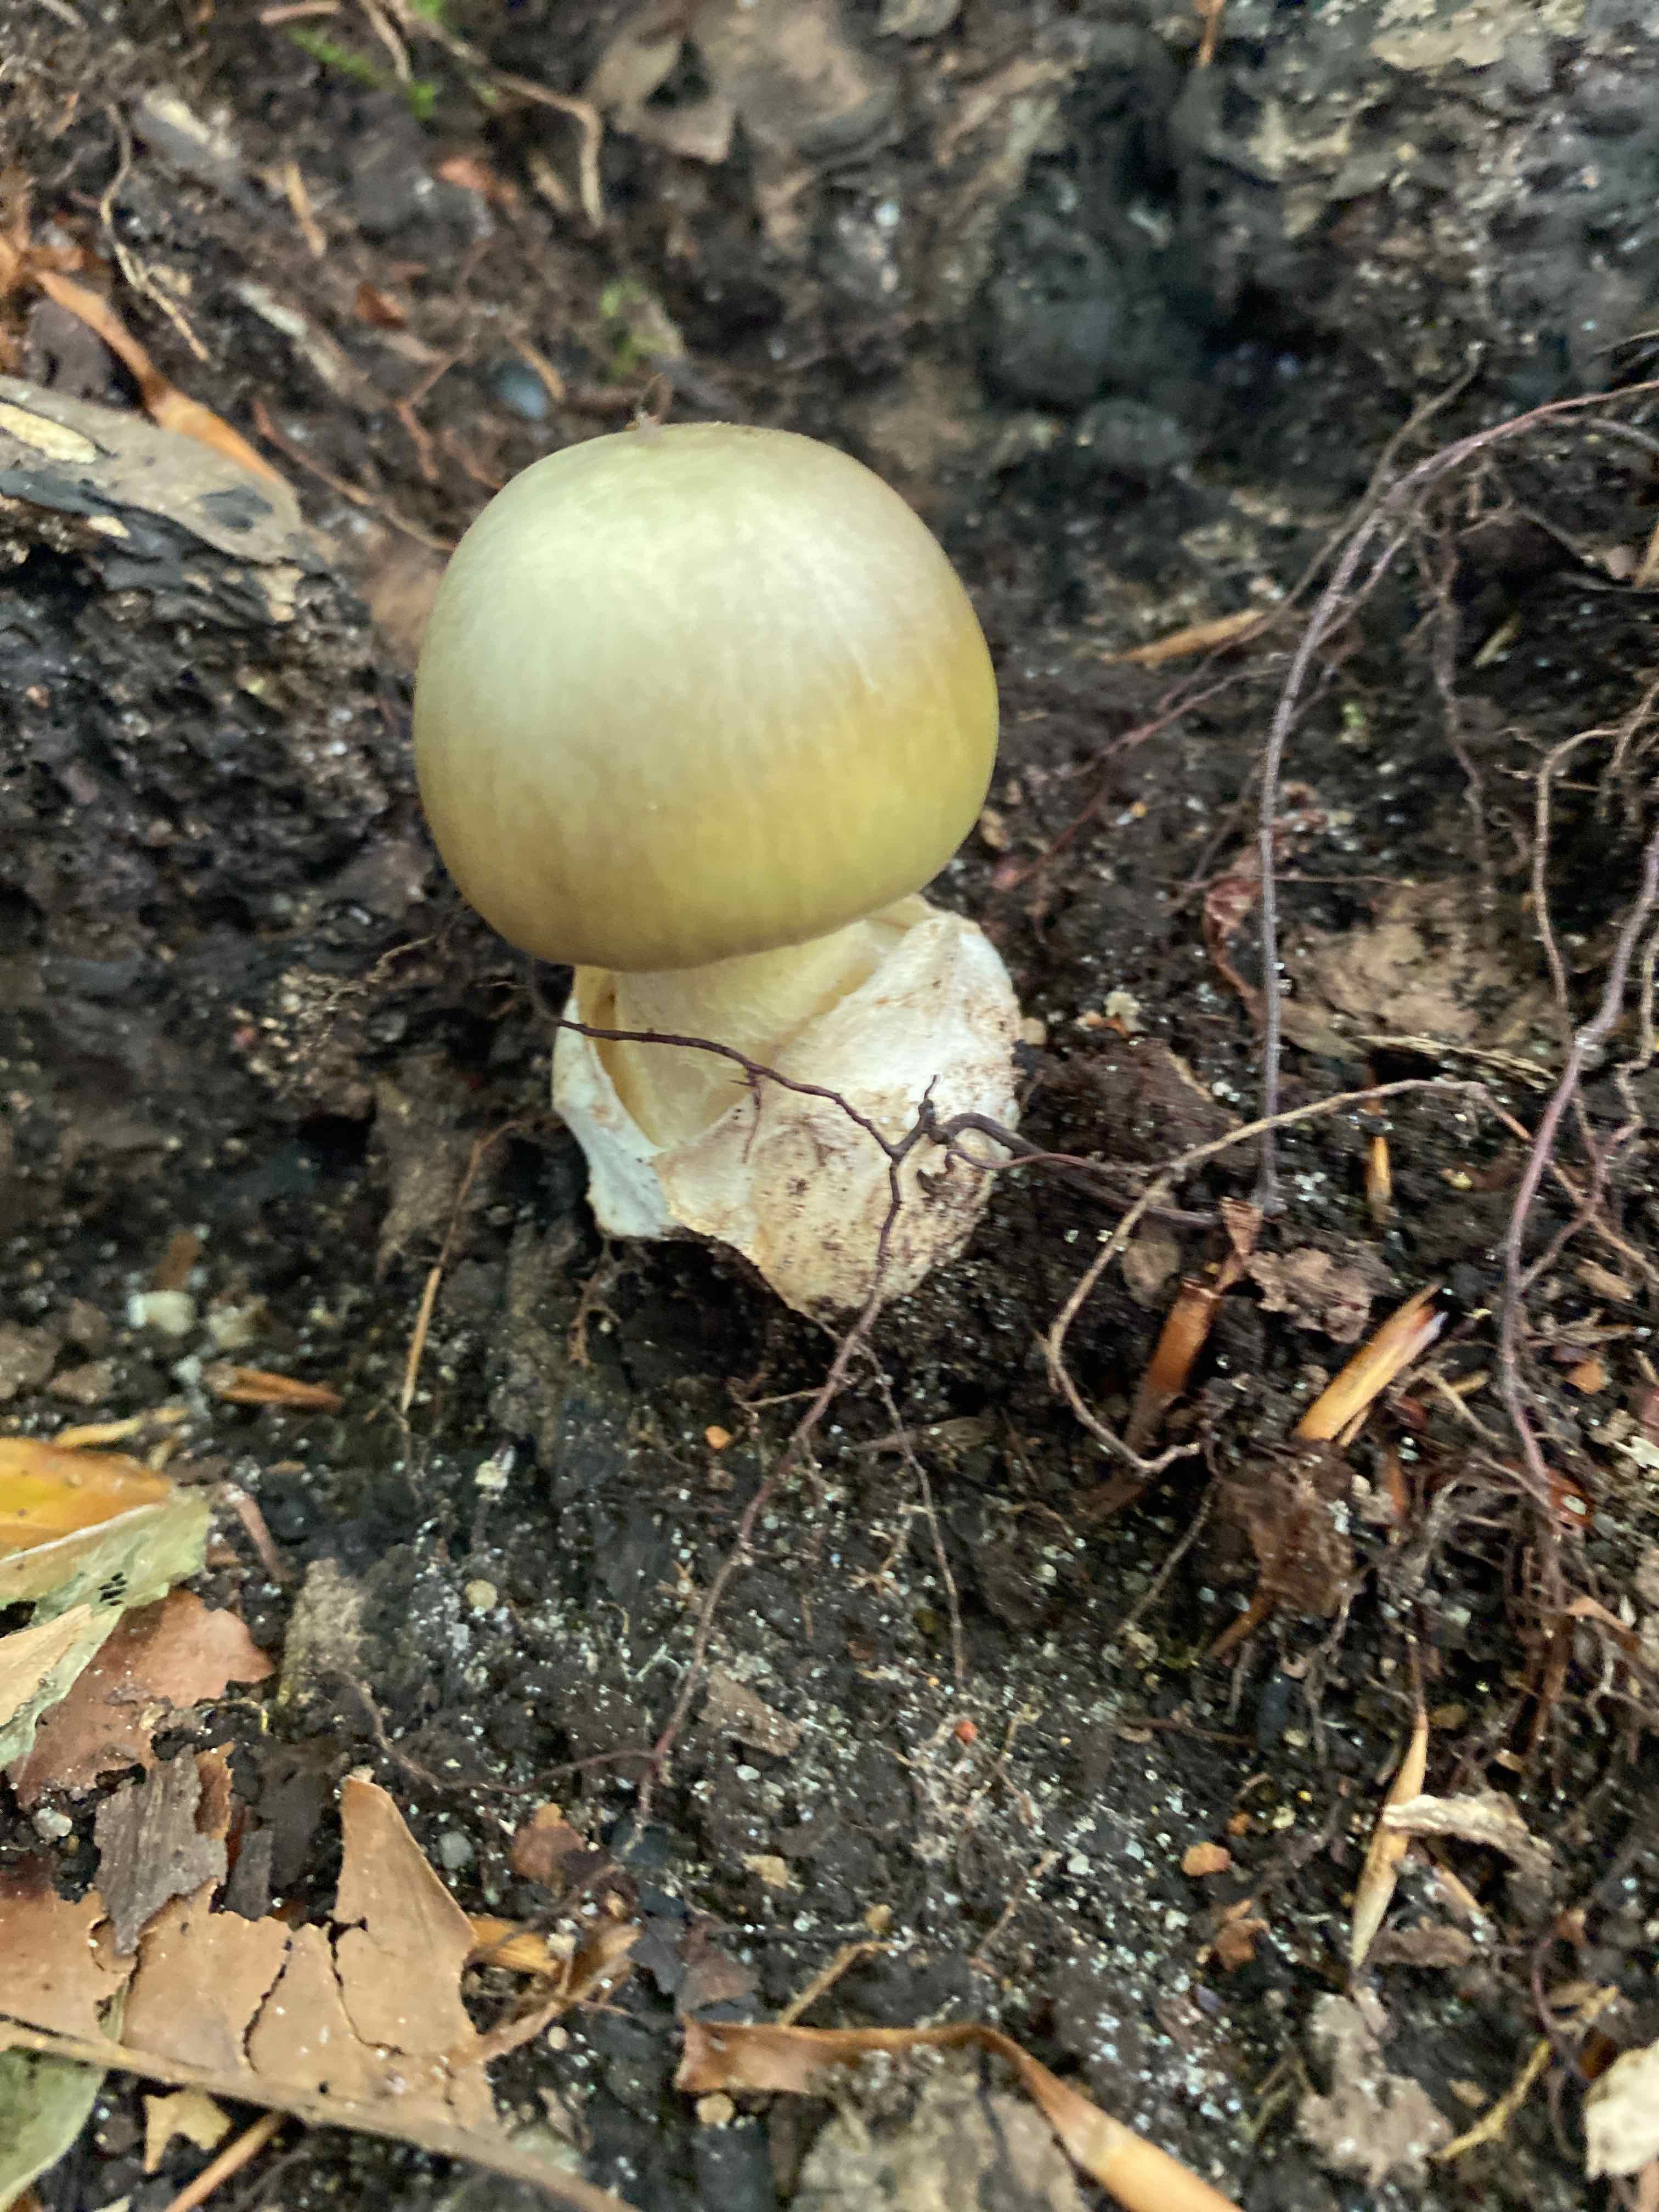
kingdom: Fungi
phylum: Basidiomycota
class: Agaricomycetes
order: Agaricales
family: Amanitaceae
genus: Amanita
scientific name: Amanita phalloides
